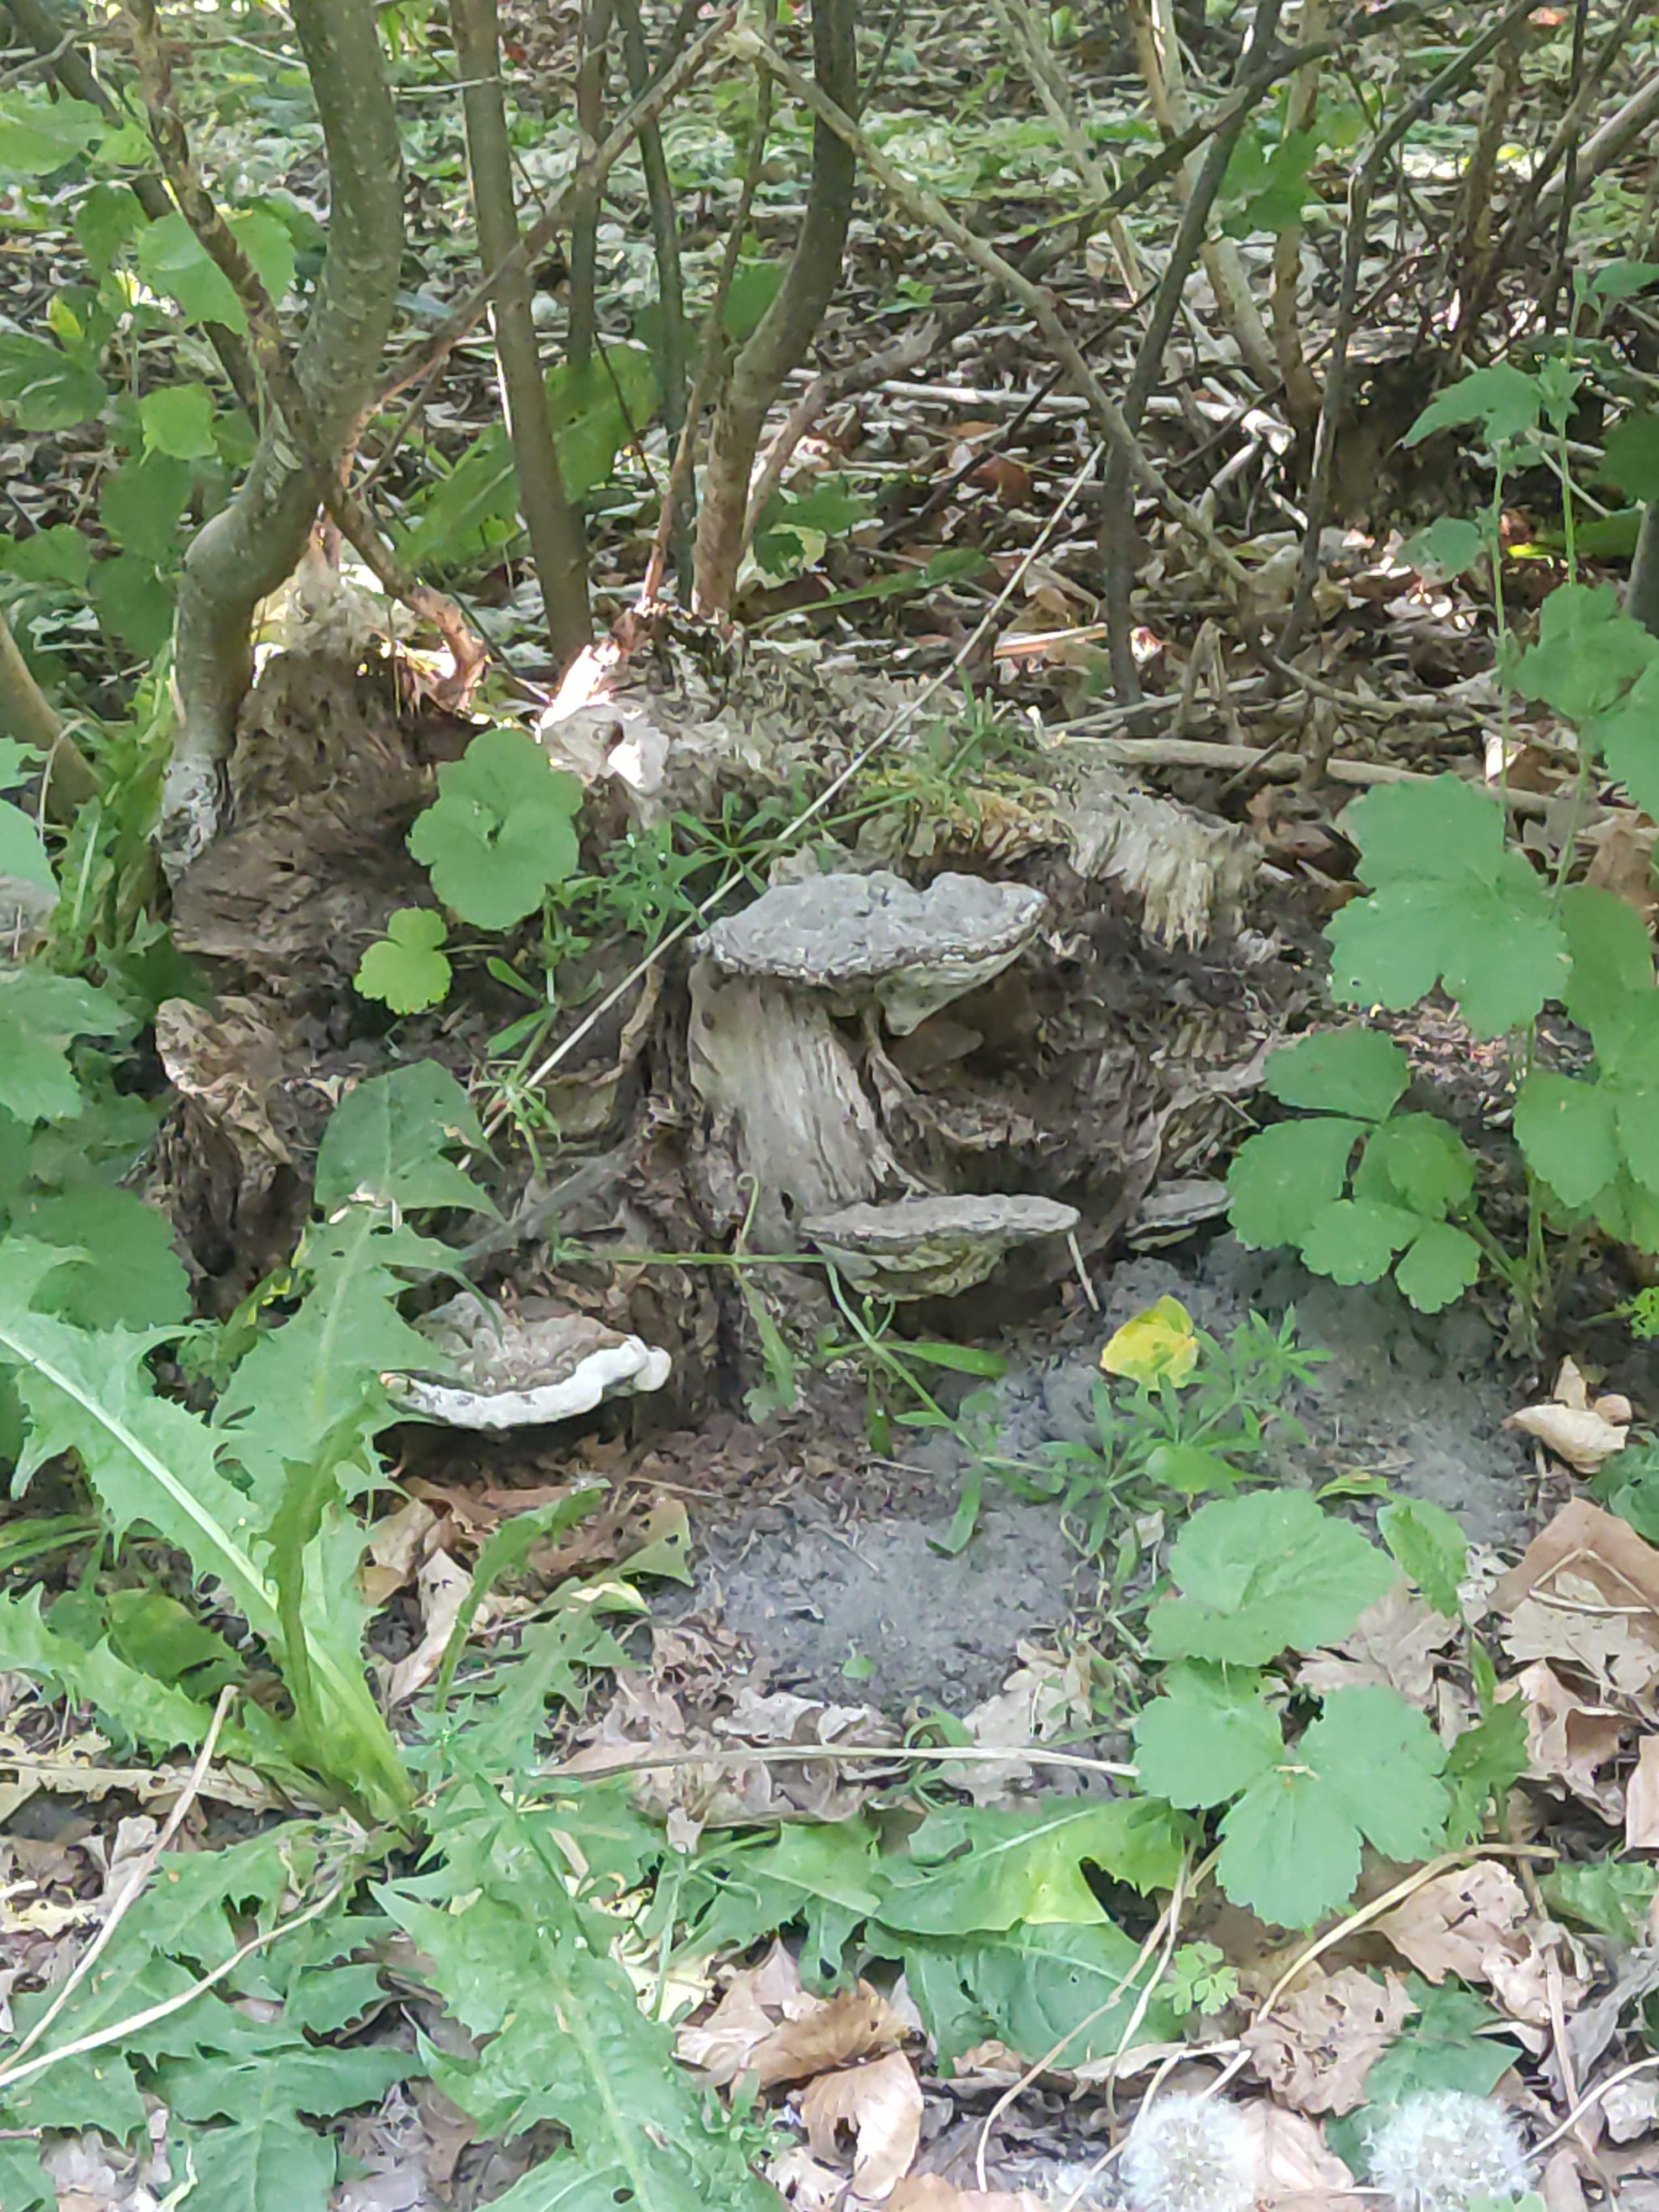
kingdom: Fungi
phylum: Basidiomycota
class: Agaricomycetes
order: Polyporales
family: Polyporaceae
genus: Fomes
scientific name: Fomes fomentarius
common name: tøndersvamp
